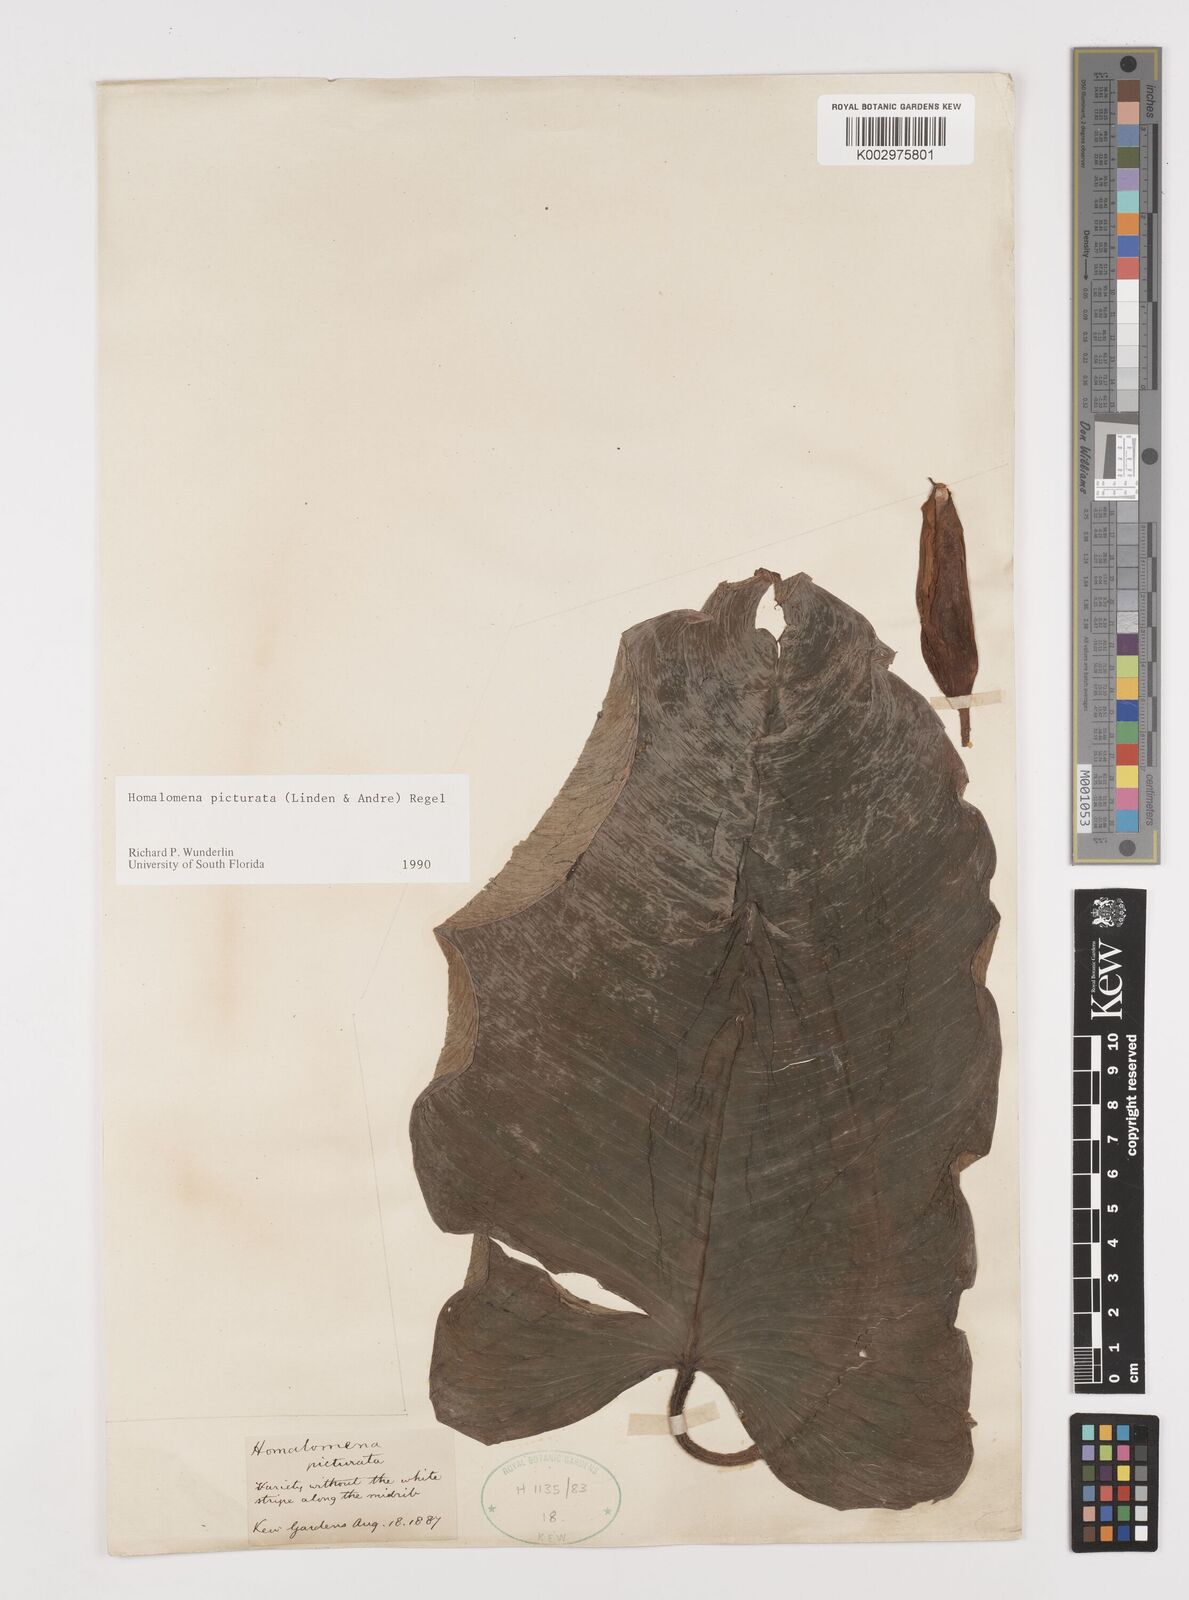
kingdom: Plantae
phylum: Tracheophyta
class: Liliopsida
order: Alismatales
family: Araceae
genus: Adelonema
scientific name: Adelonema picturatum
